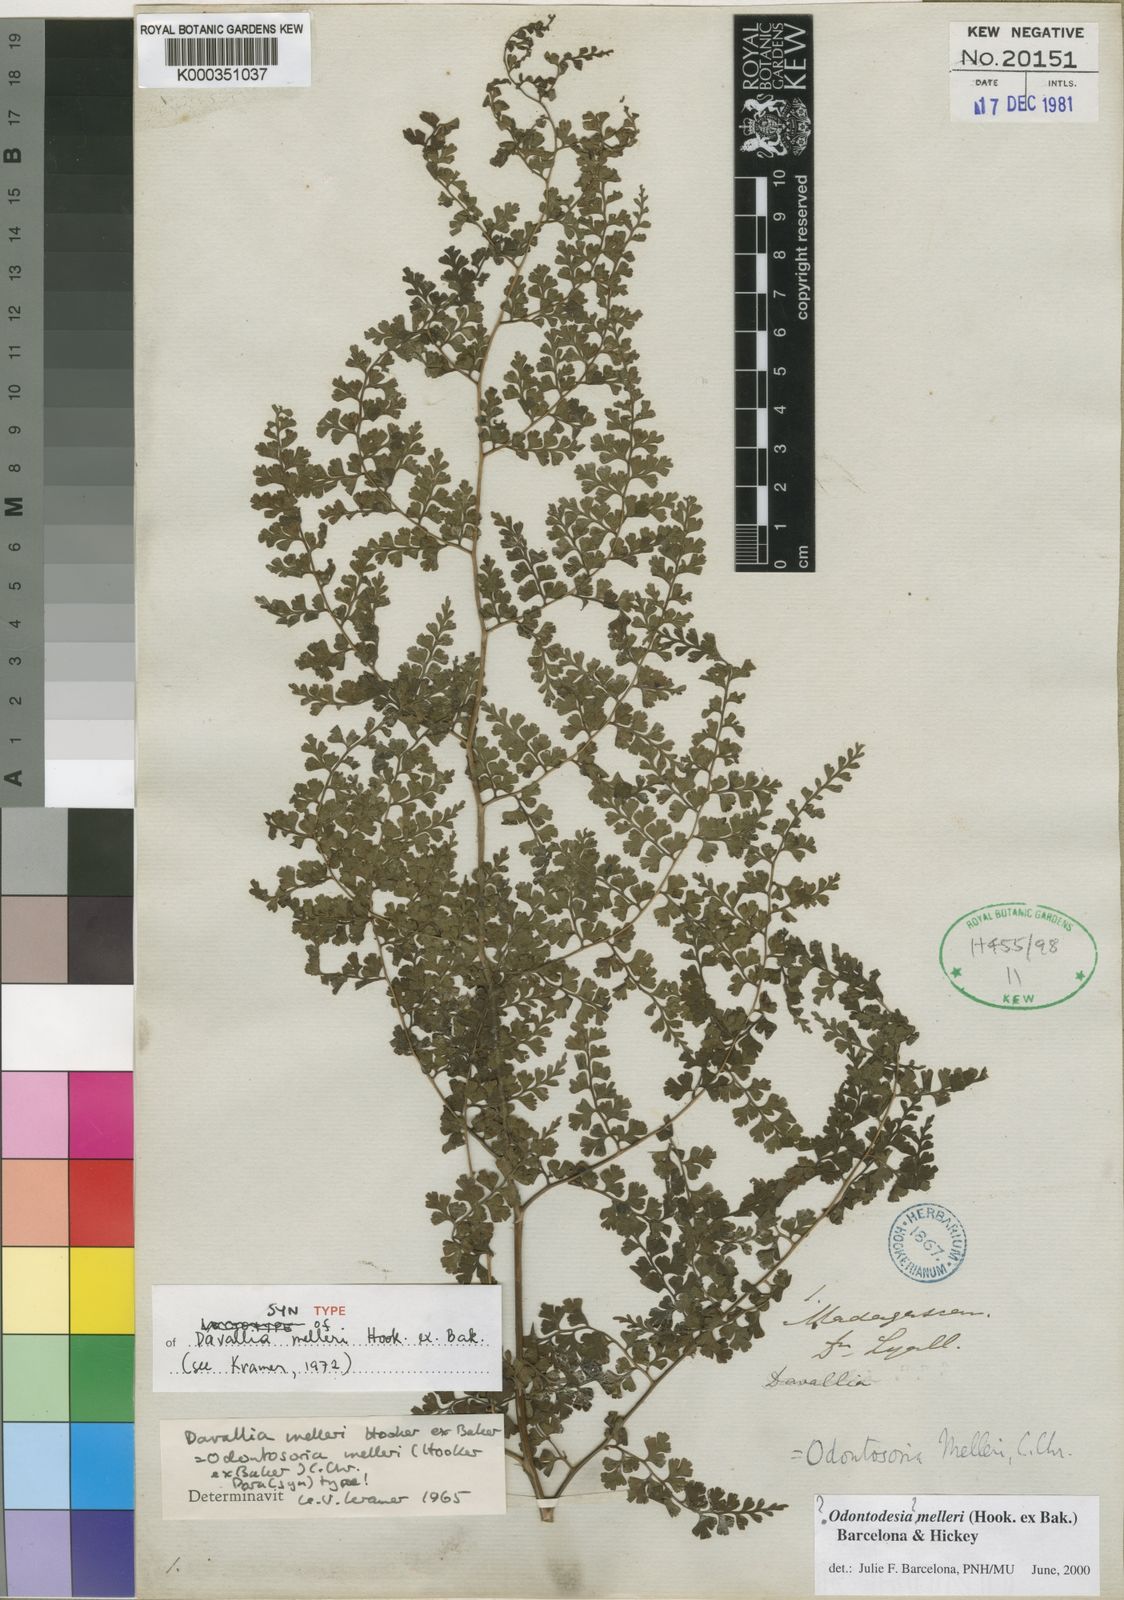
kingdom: Plantae
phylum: Tracheophyta
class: Polypodiopsida
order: Polypodiales
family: Lindsaeaceae
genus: Odontosoria
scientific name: Odontosoria melleri
